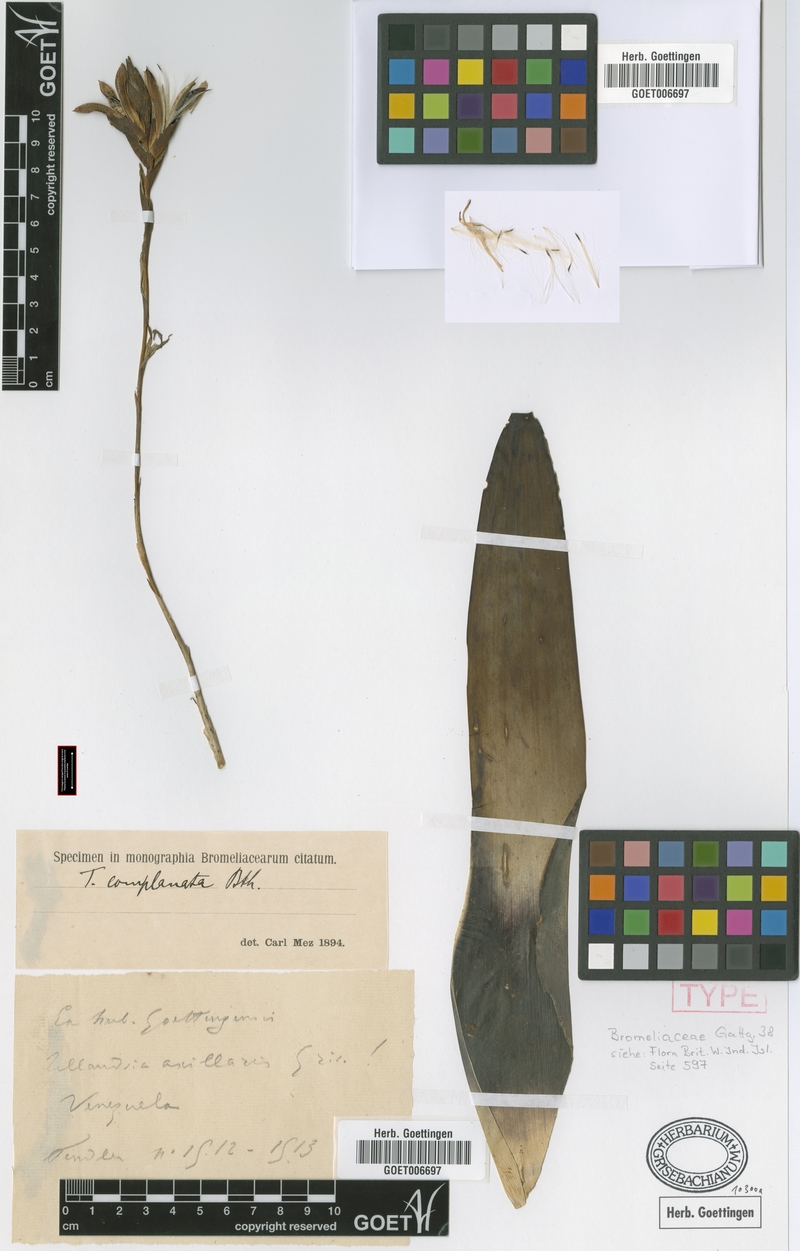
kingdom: Plantae
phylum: Tracheophyta
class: Liliopsida
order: Poales
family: Bromeliaceae
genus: Tillandsia
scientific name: Tillandsia complanata
